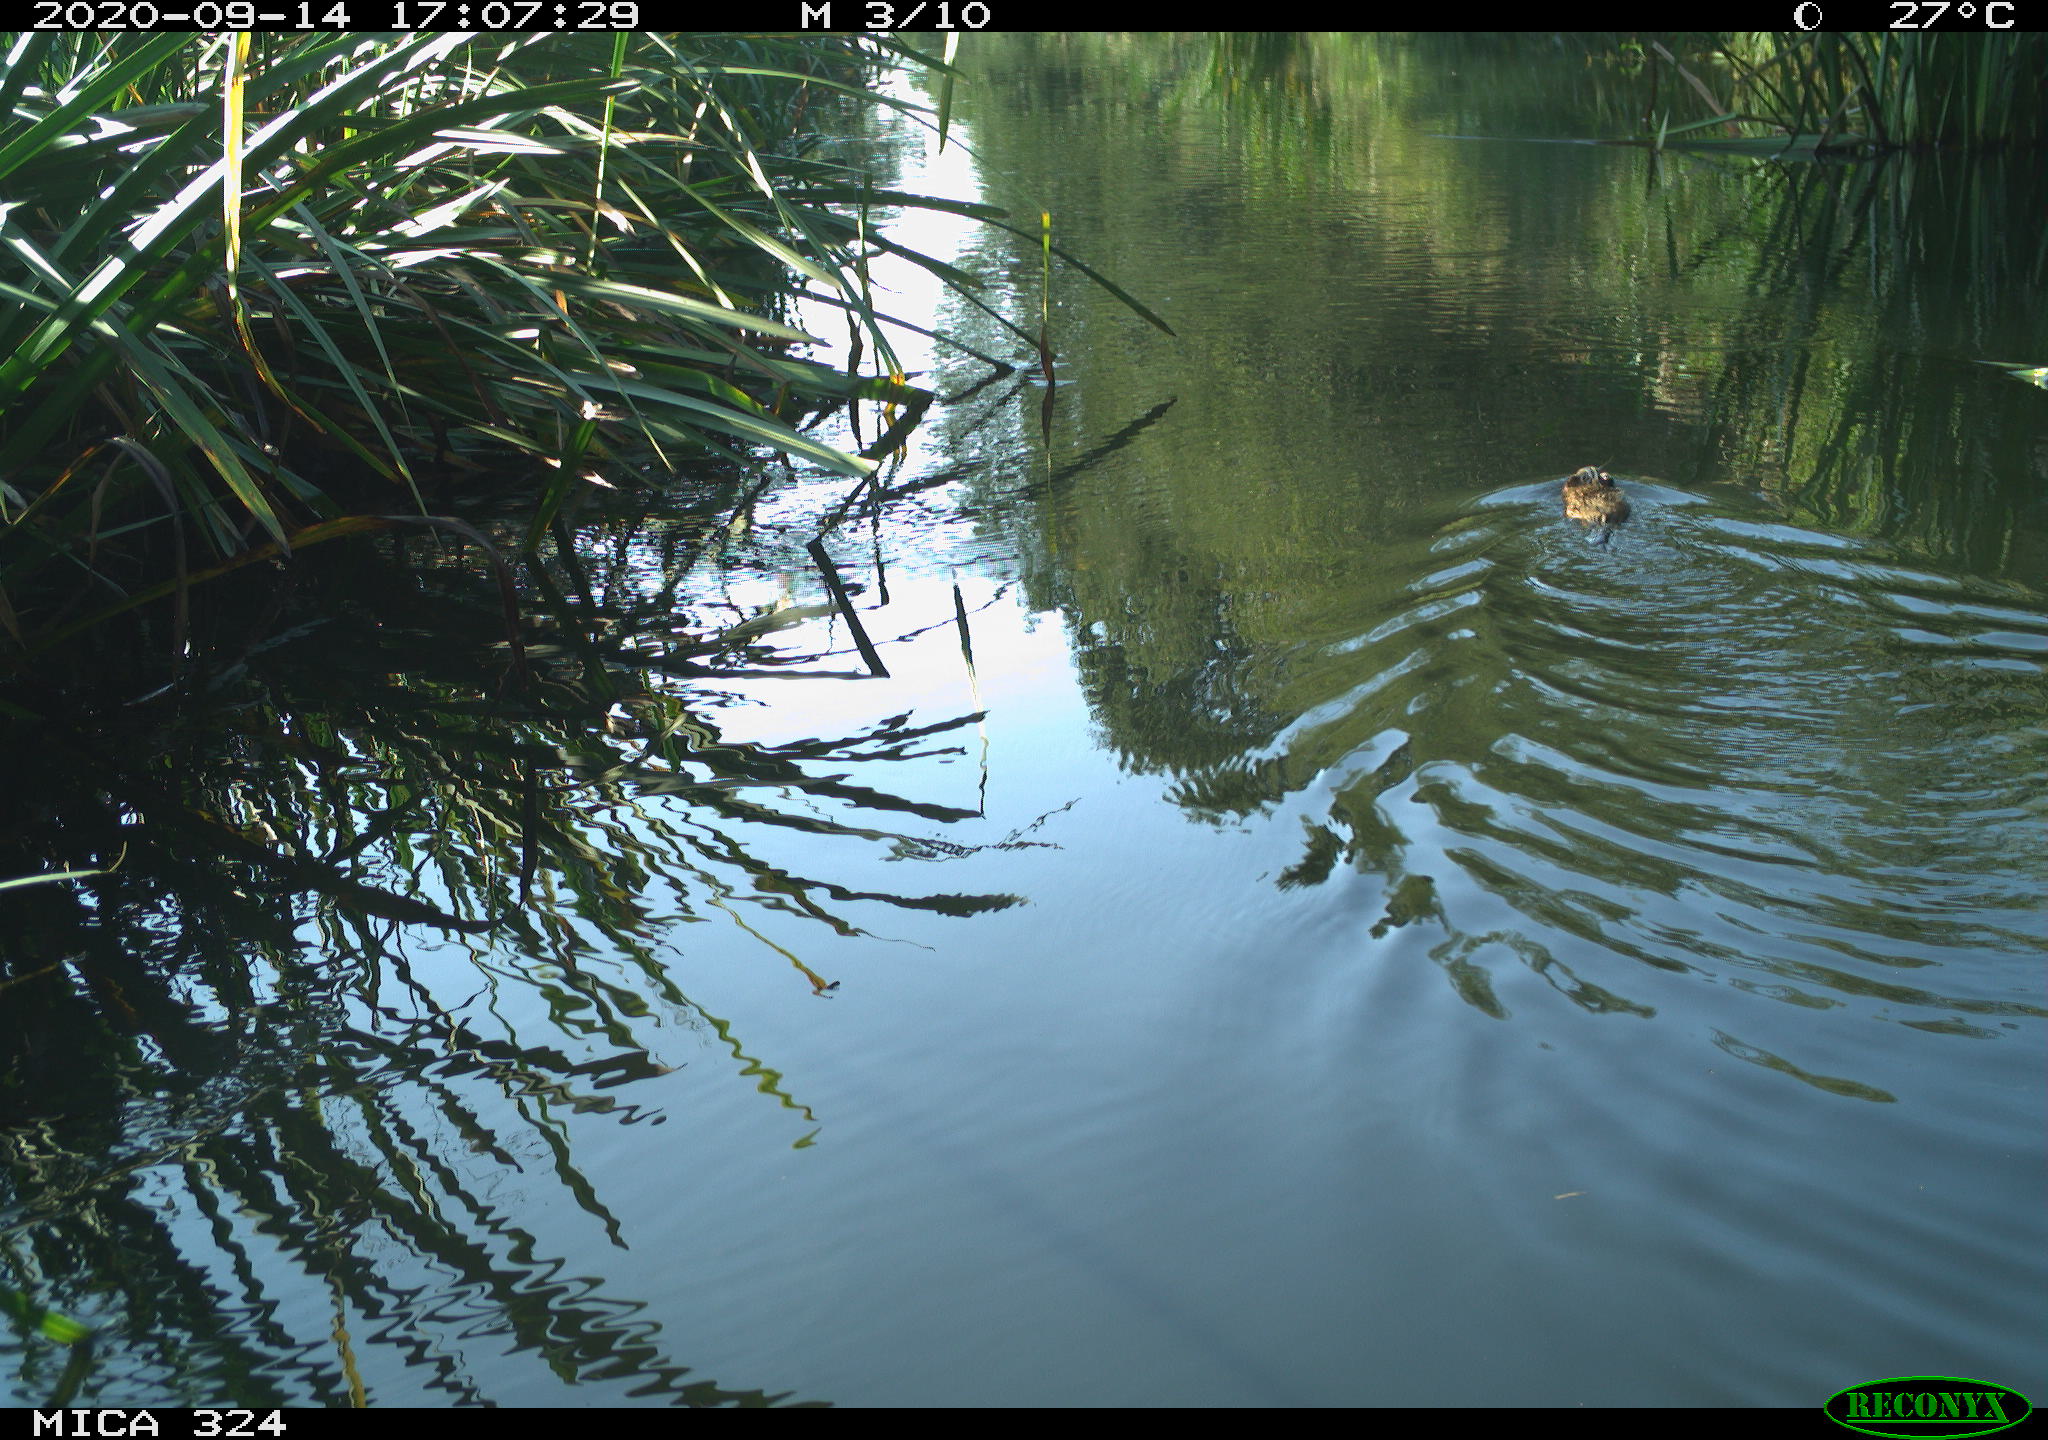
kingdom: Animalia
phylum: Chordata
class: Mammalia
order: Rodentia
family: Cricetidae
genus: Ondatra
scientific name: Ondatra zibethicus
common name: Muskrat
